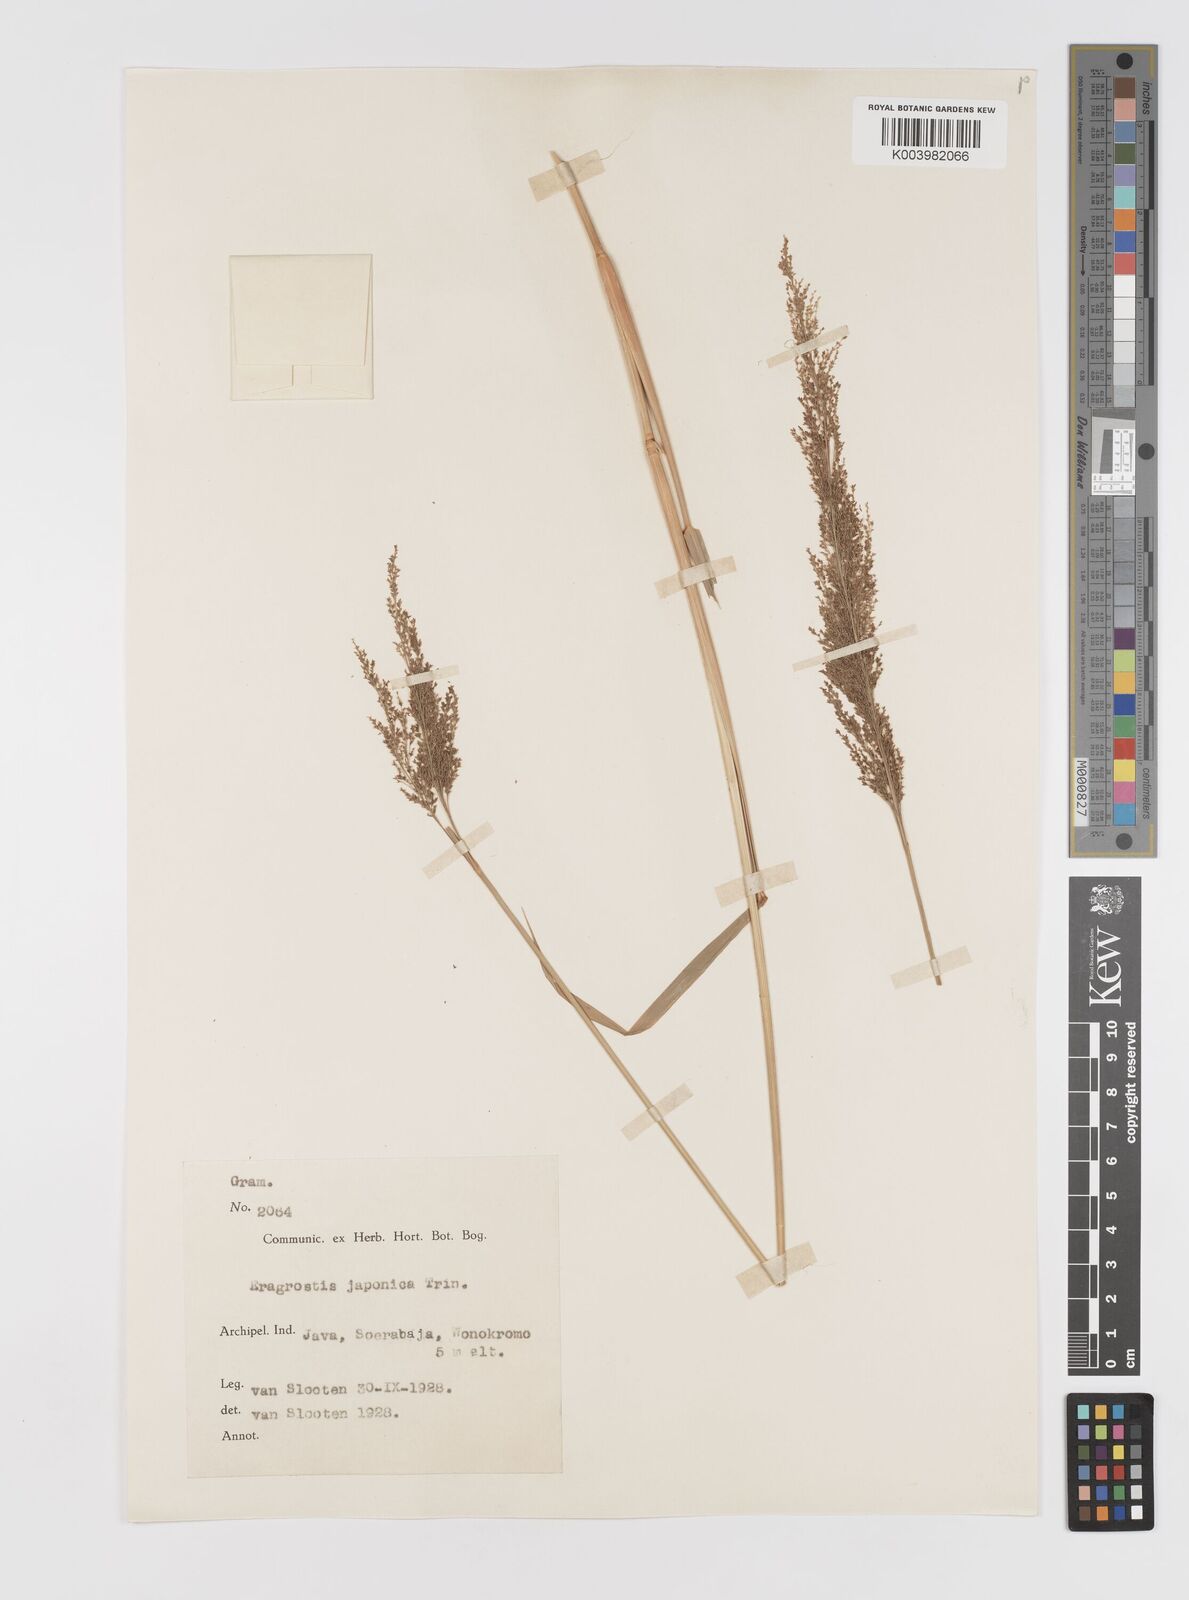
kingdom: Plantae
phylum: Tracheophyta
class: Liliopsida
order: Poales
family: Poaceae
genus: Eragrostis
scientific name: Eragrostis japonica
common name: Pond lovegrass
